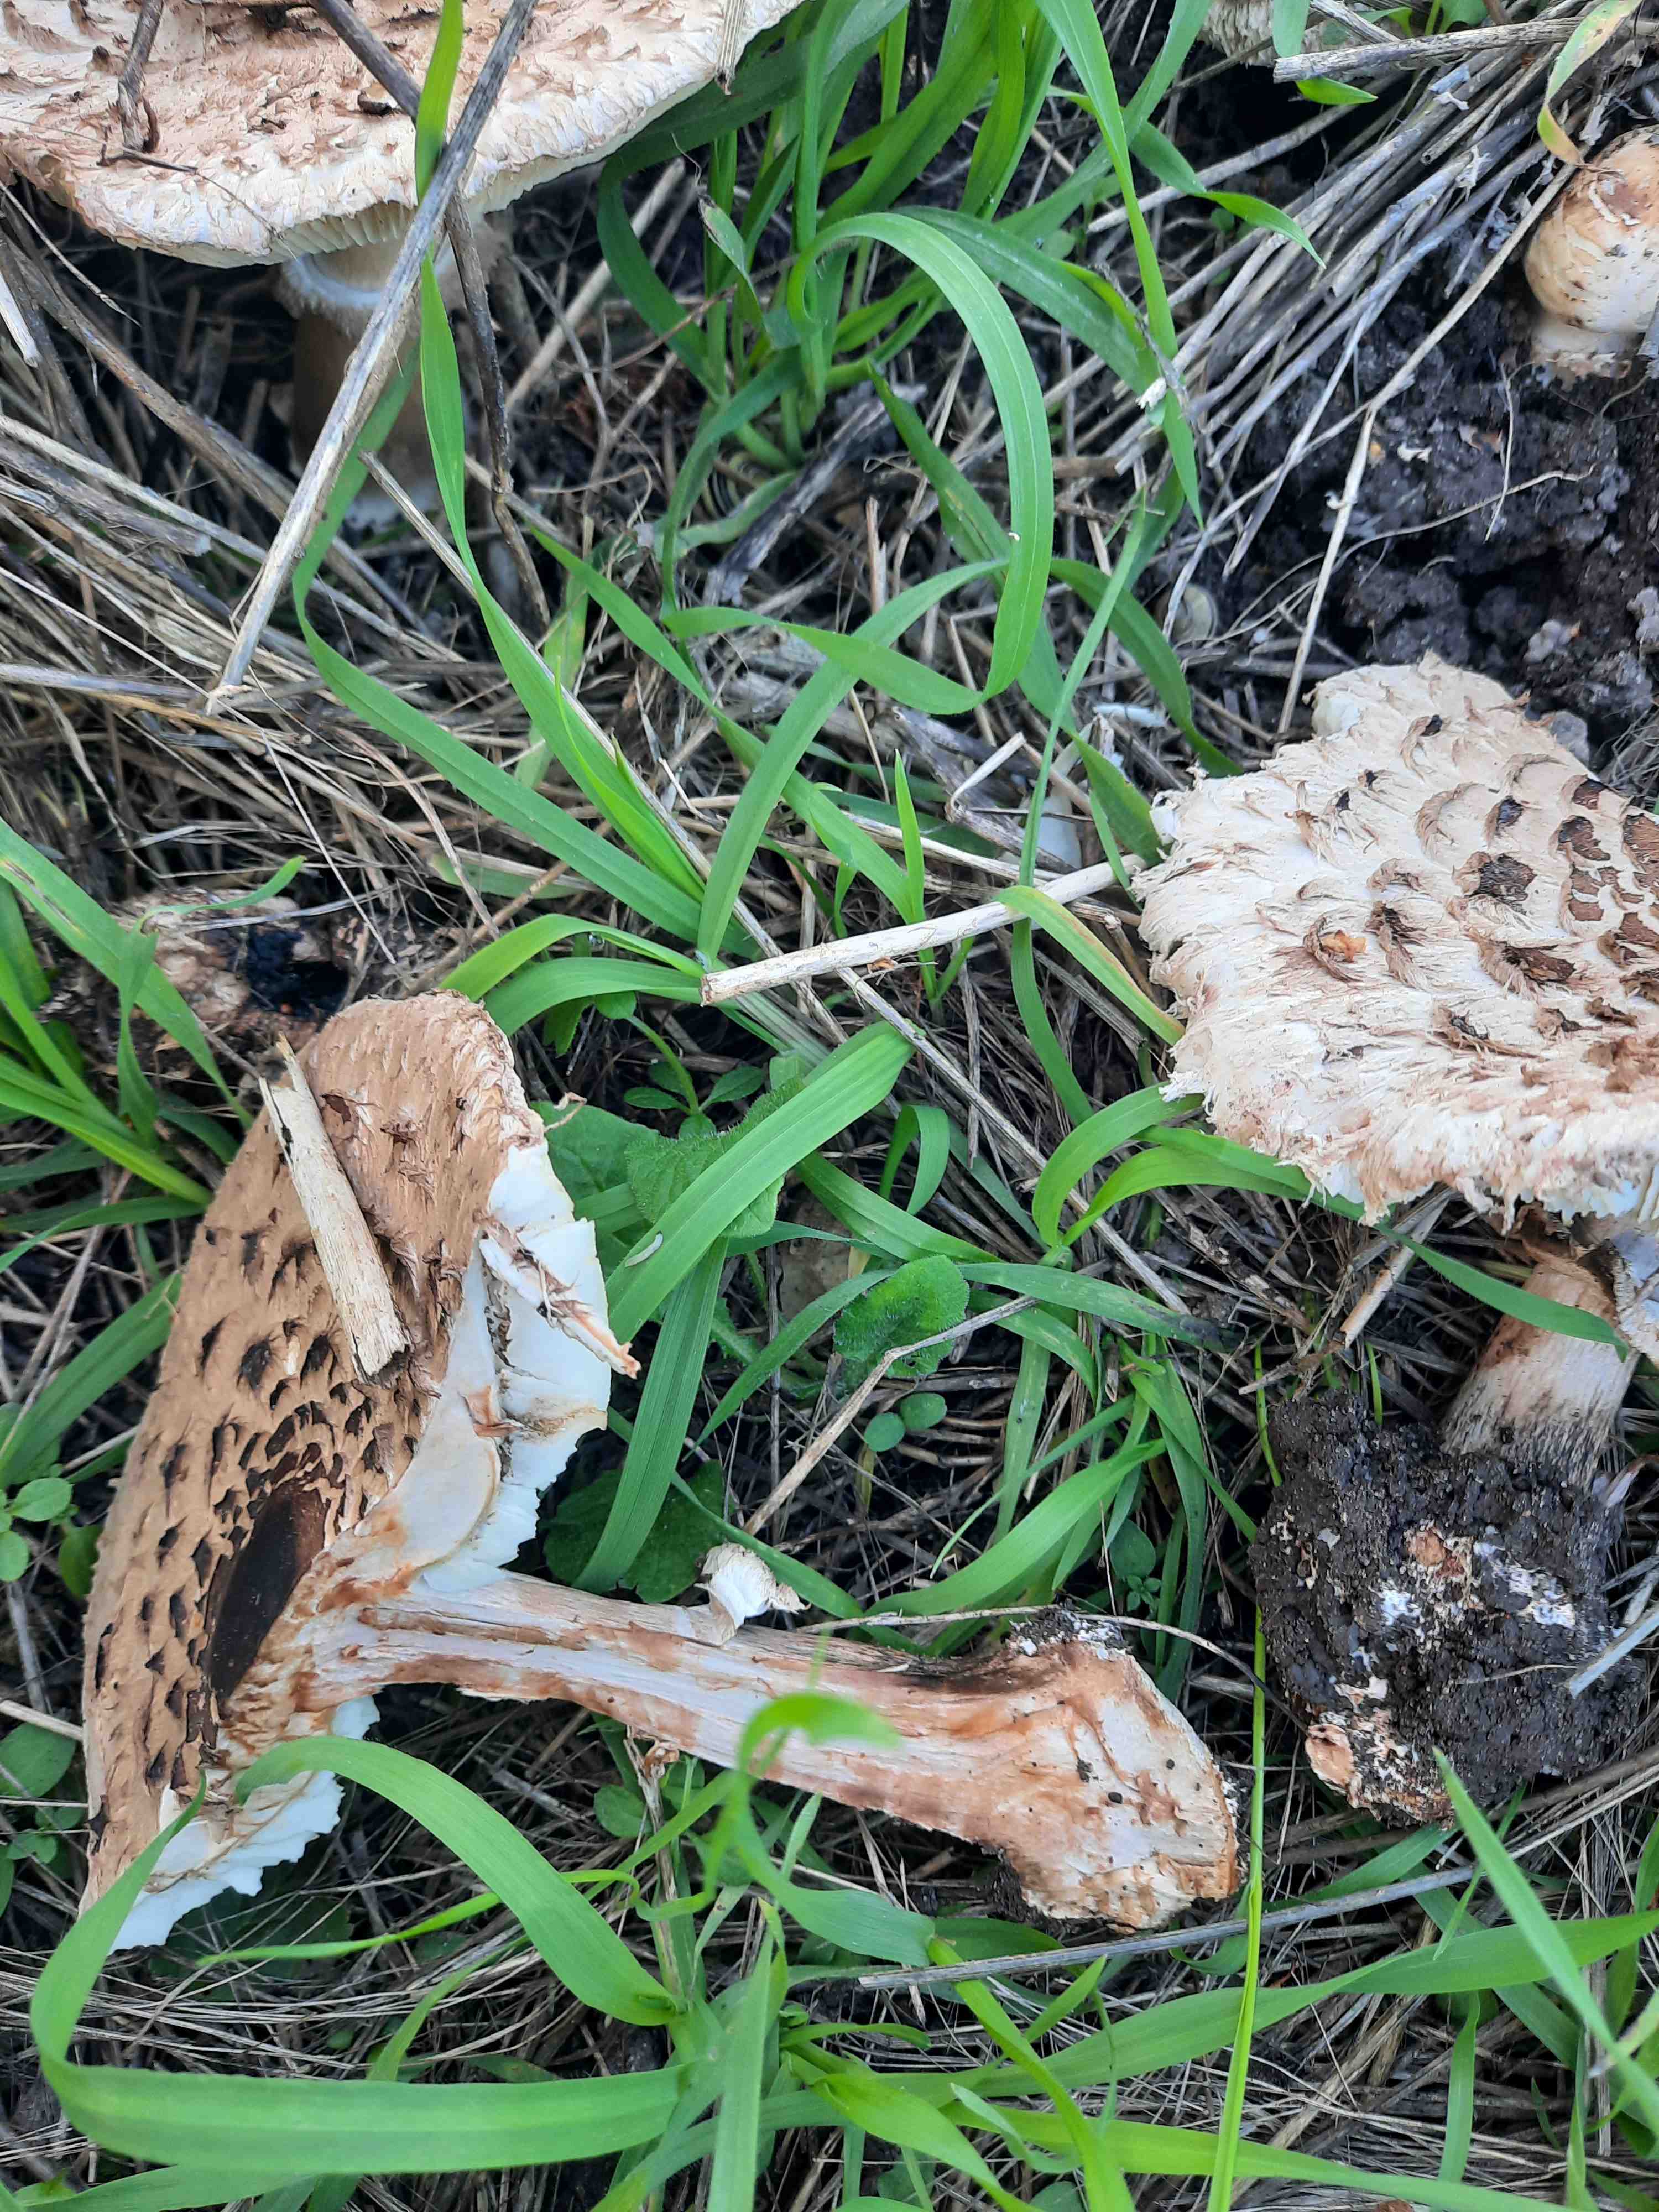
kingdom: Fungi
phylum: Basidiomycota
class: Agaricomycetes
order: Agaricales
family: Agaricaceae
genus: Chlorophyllum
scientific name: Chlorophyllum brunneum
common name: giftig rabarberhat
